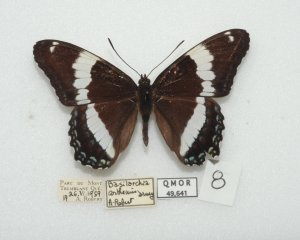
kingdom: Animalia
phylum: Arthropoda
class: Insecta
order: Lepidoptera
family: Nymphalidae
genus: Limenitis
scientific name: Limenitis arthemis
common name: Red-spotted Admiral
